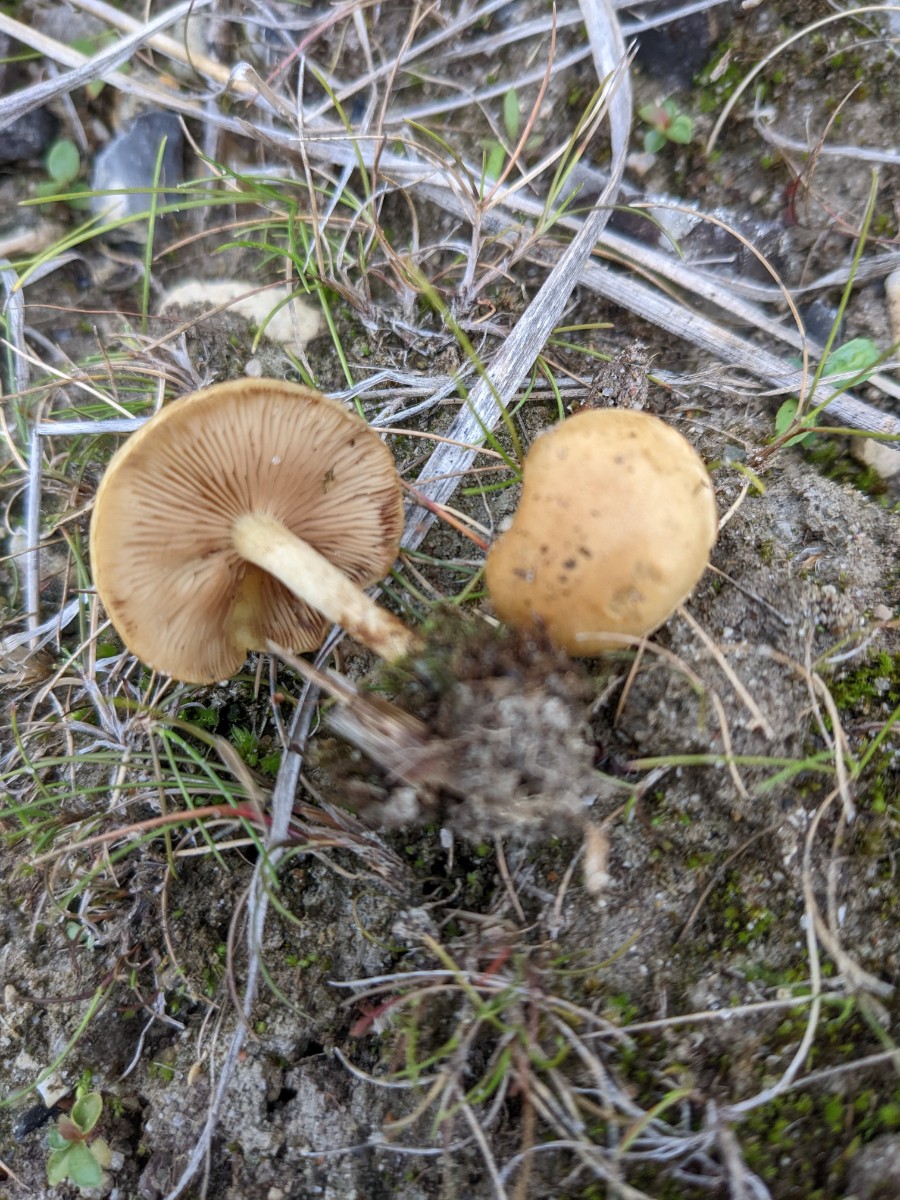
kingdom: Fungi
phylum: Basidiomycota
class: Agaricomycetes
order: Agaricales
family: Strophariaceae
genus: Pholiota
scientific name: Pholiota conissans
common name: pile-skælhat
